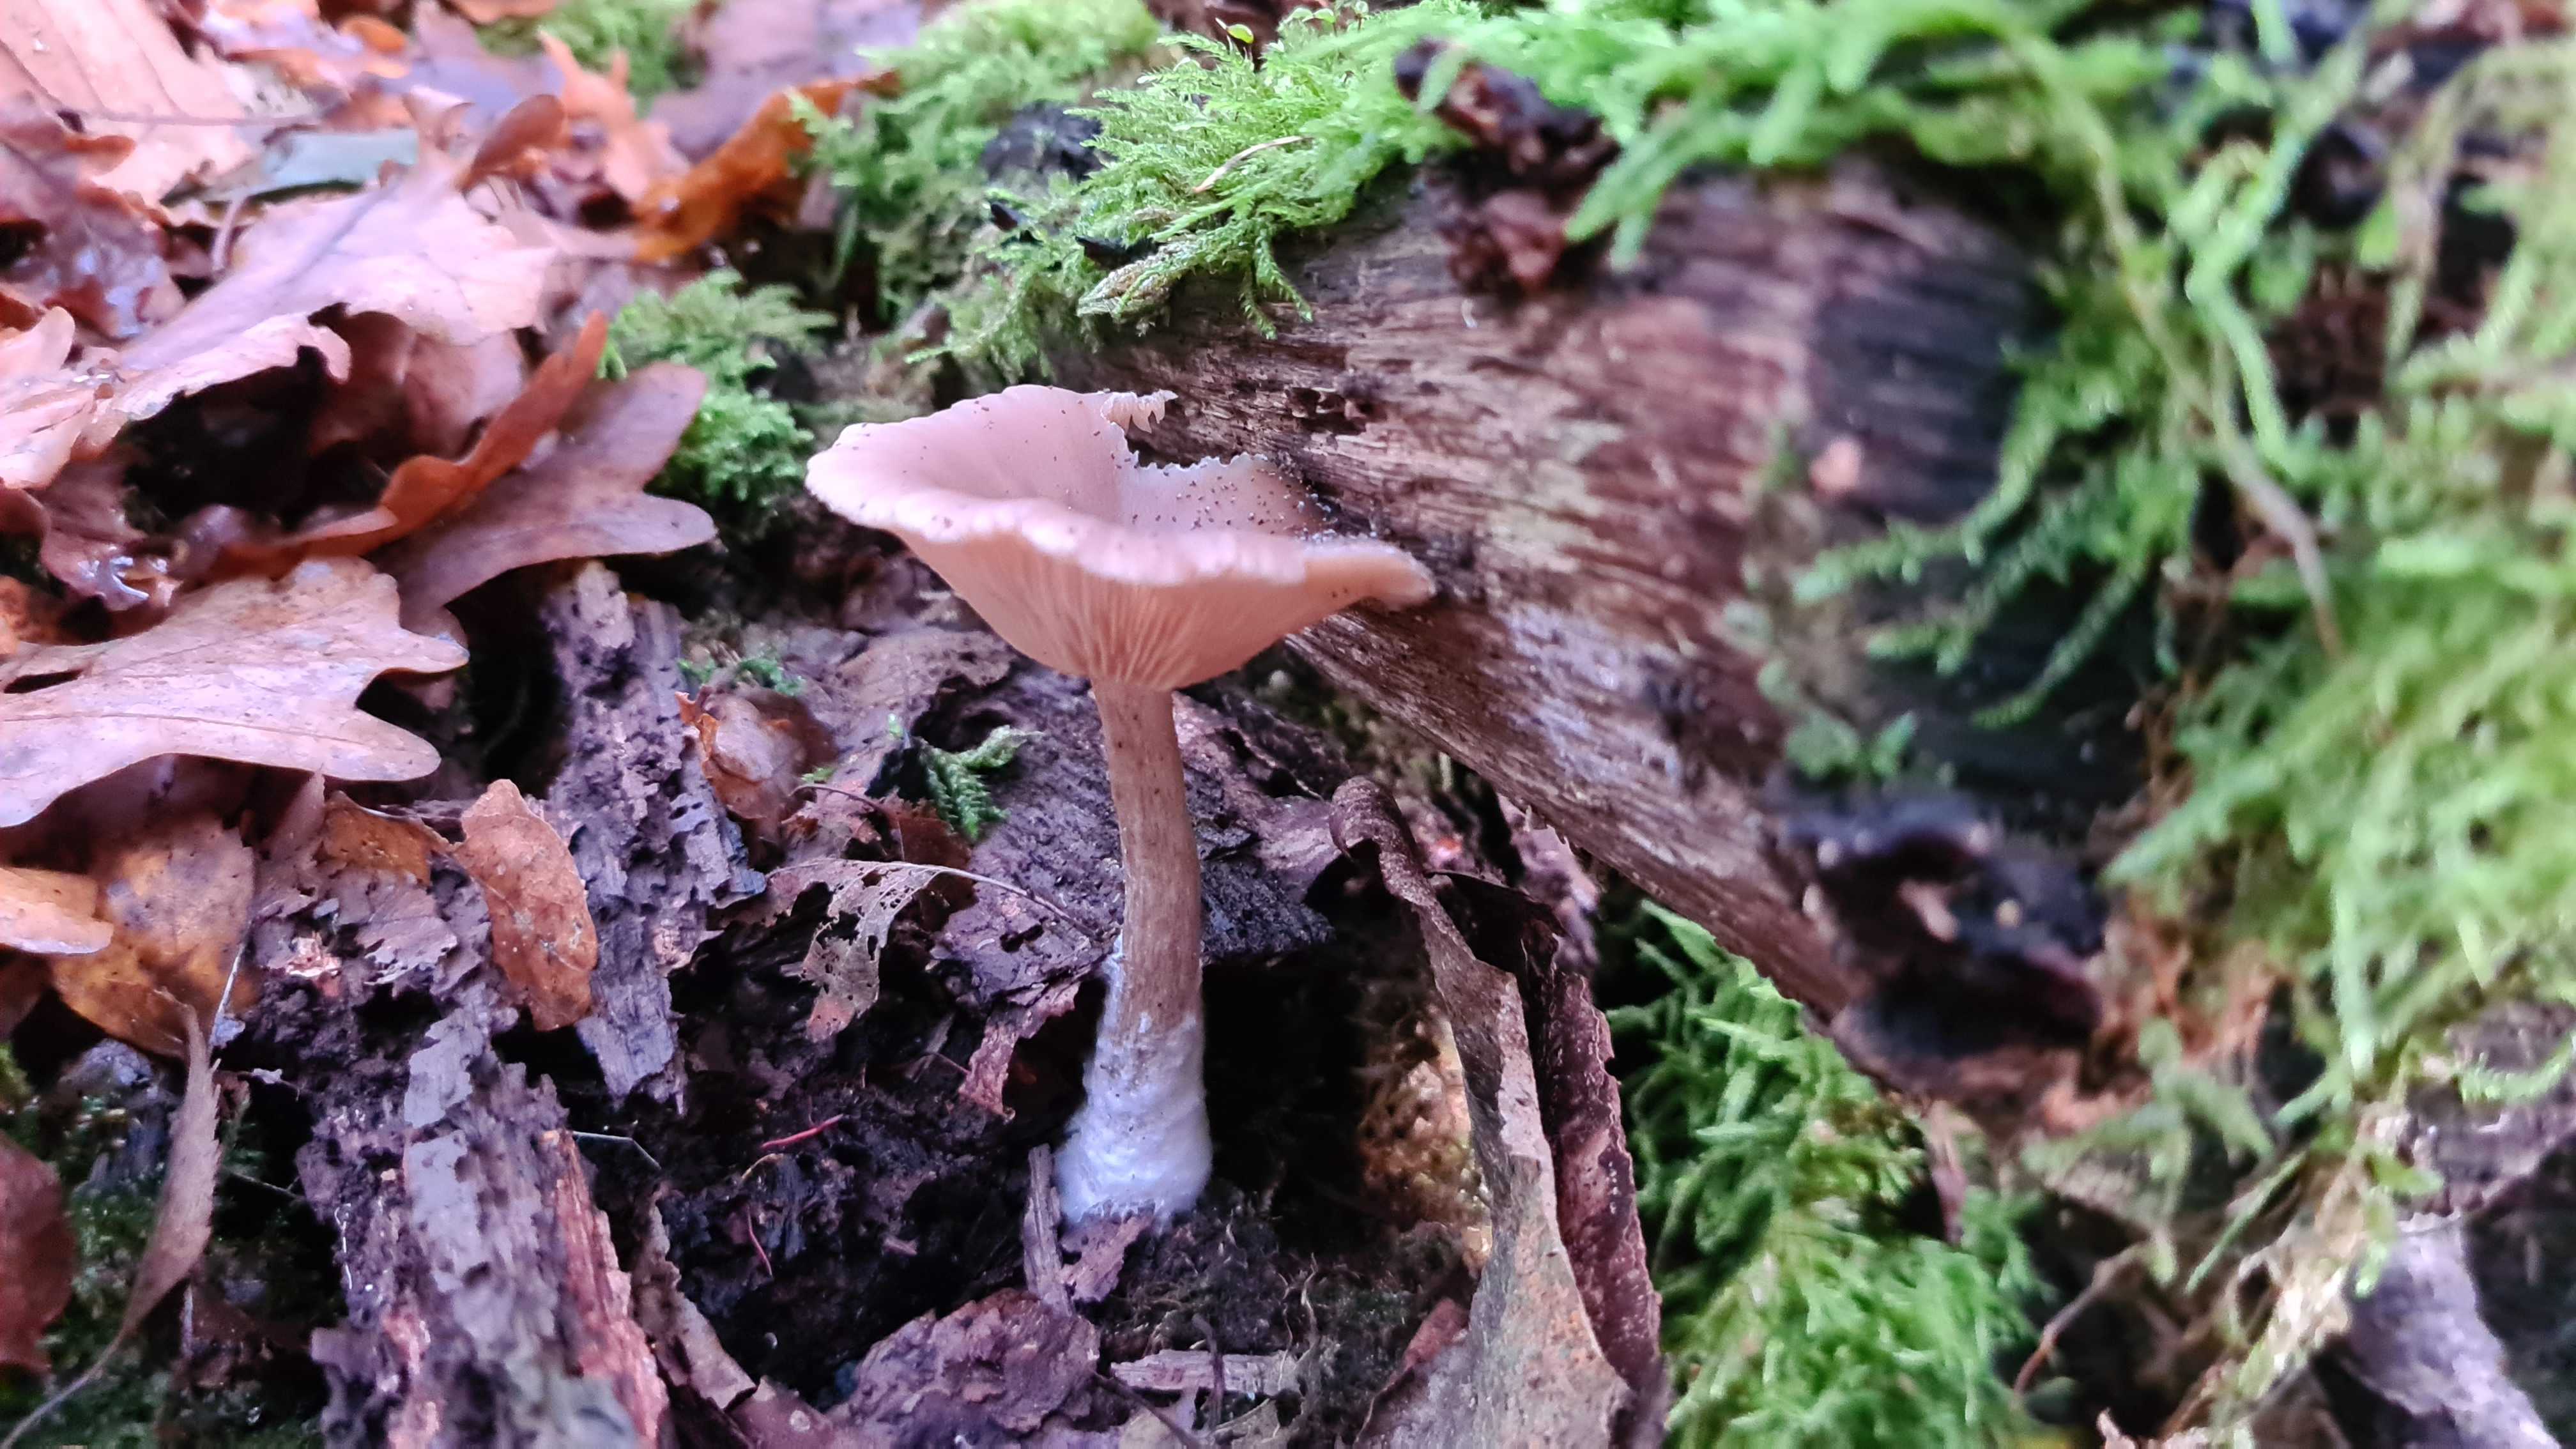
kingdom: Fungi
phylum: Basidiomycota
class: Agaricomycetes
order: Agaricales
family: Pseudoclitocybaceae
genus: Pseudoclitocybe
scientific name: Pseudoclitocybe cyathiformis
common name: almindelig bægertragthat
